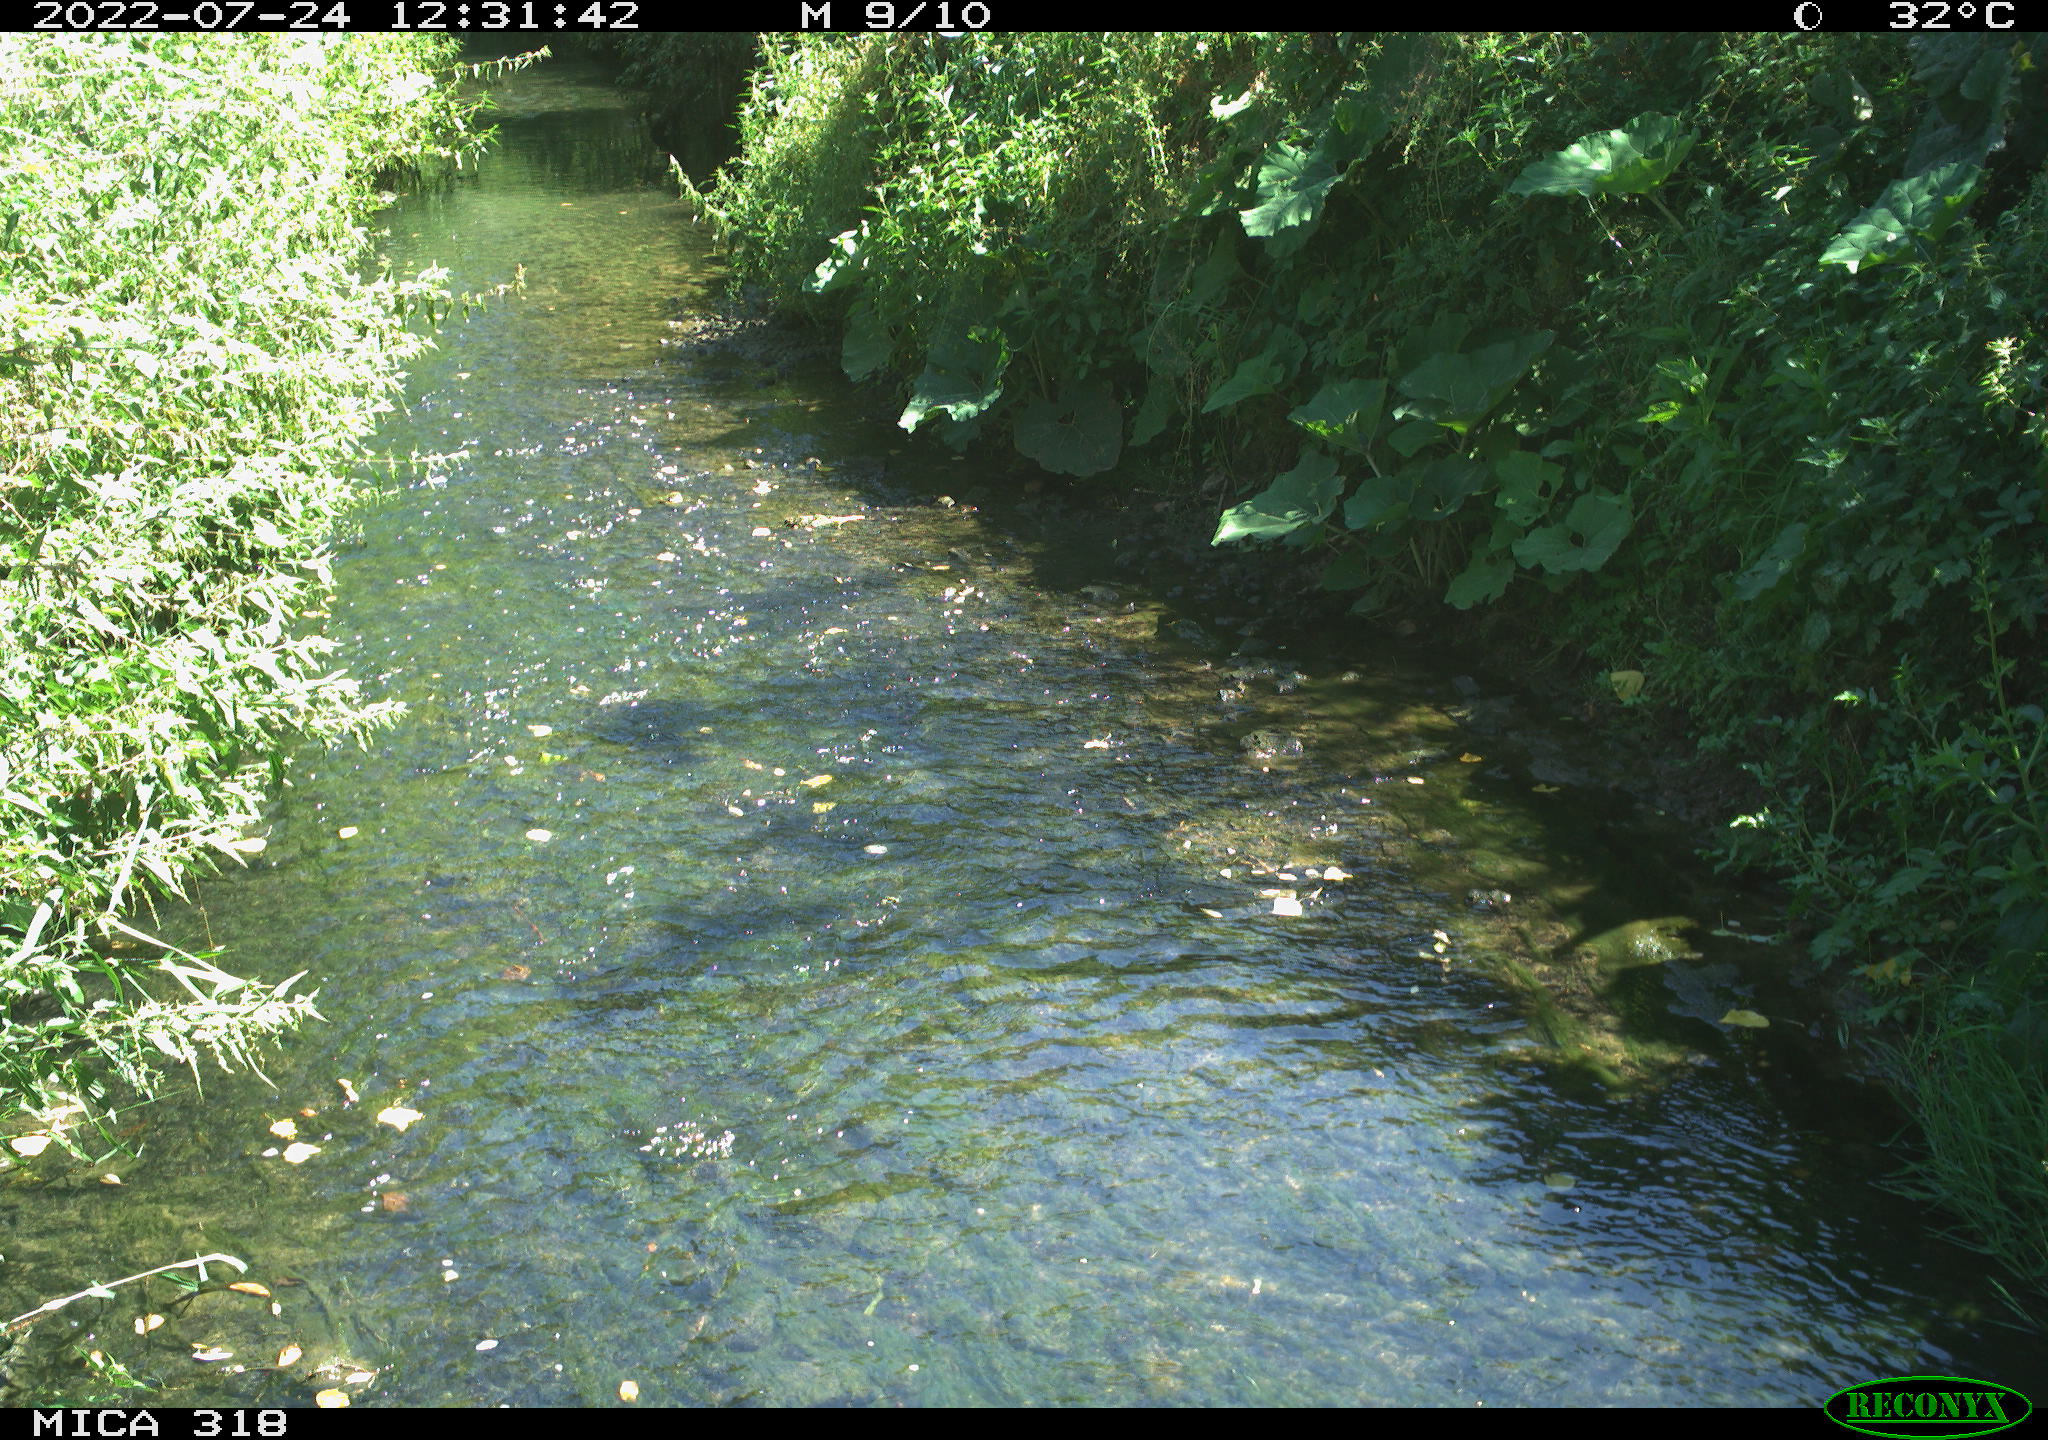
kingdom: Animalia
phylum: Chordata
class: Aves
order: Gruiformes
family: Rallidae
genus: Gallinula
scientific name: Gallinula chloropus
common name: Common moorhen
